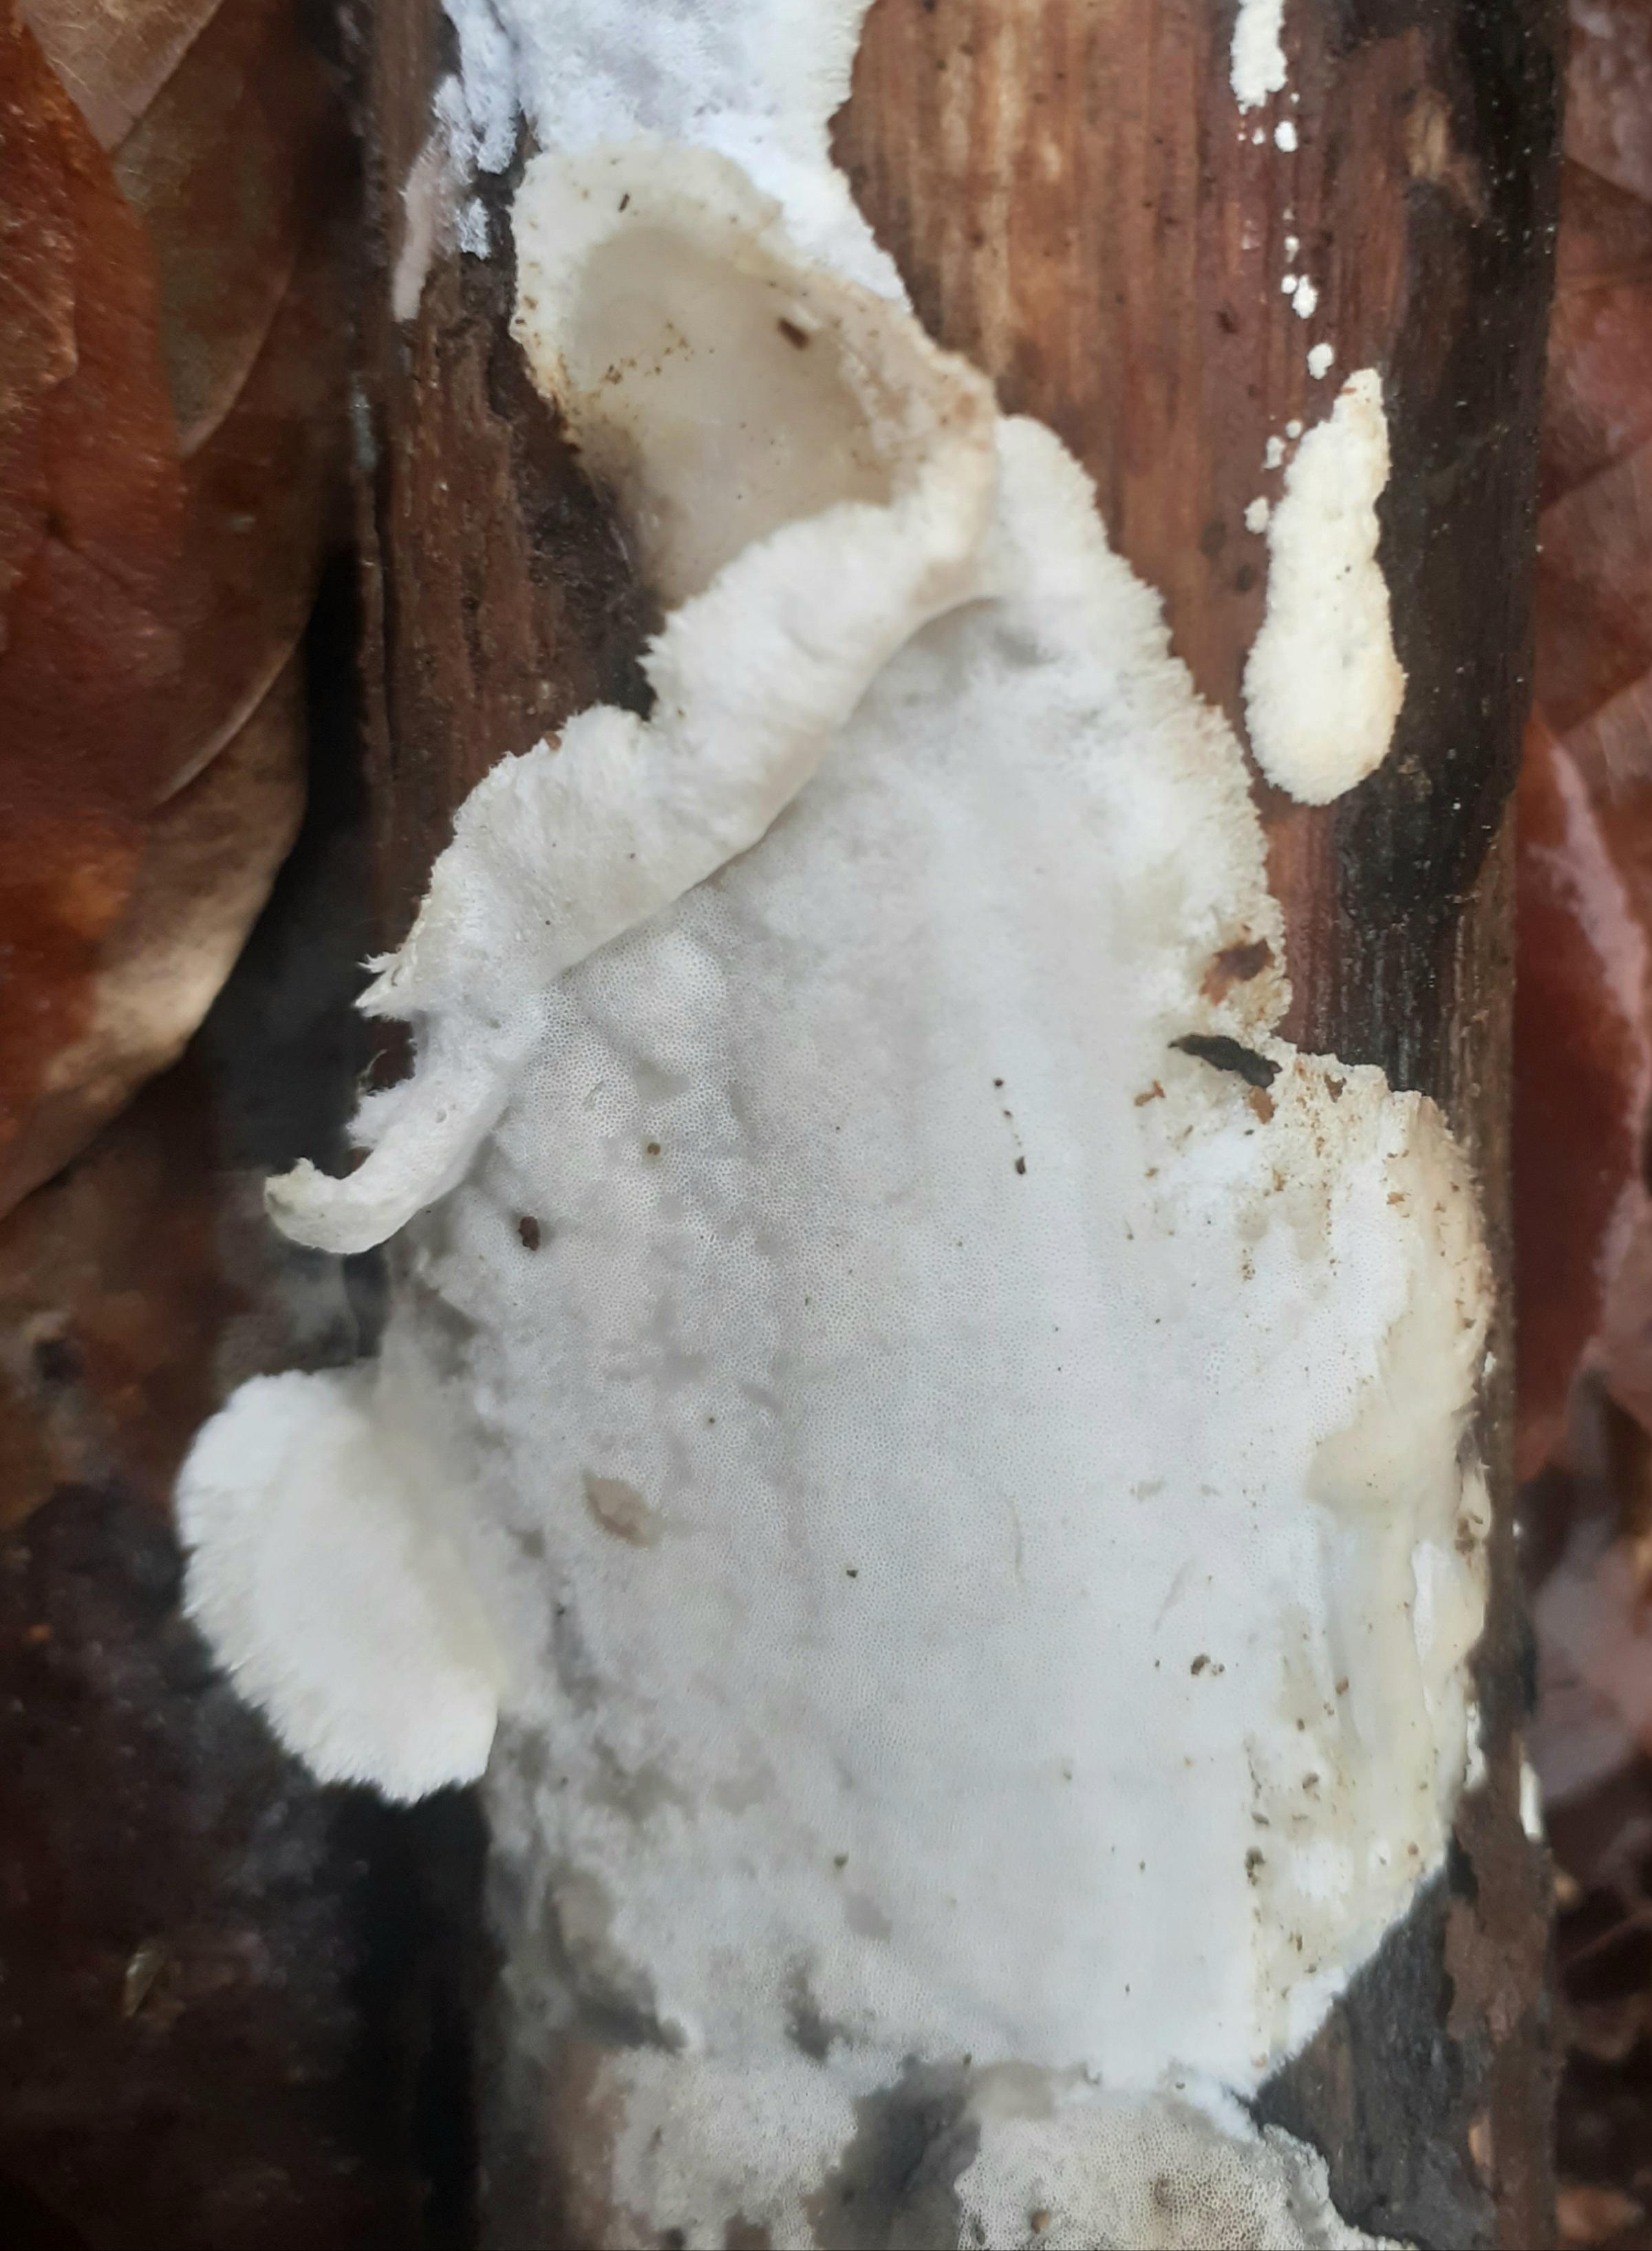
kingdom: Fungi
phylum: Basidiomycota
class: Agaricomycetes
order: Polyporales
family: Incrustoporiaceae
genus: Skeletocutis
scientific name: Skeletocutis nemoralis
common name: stor krystalporesvamp
